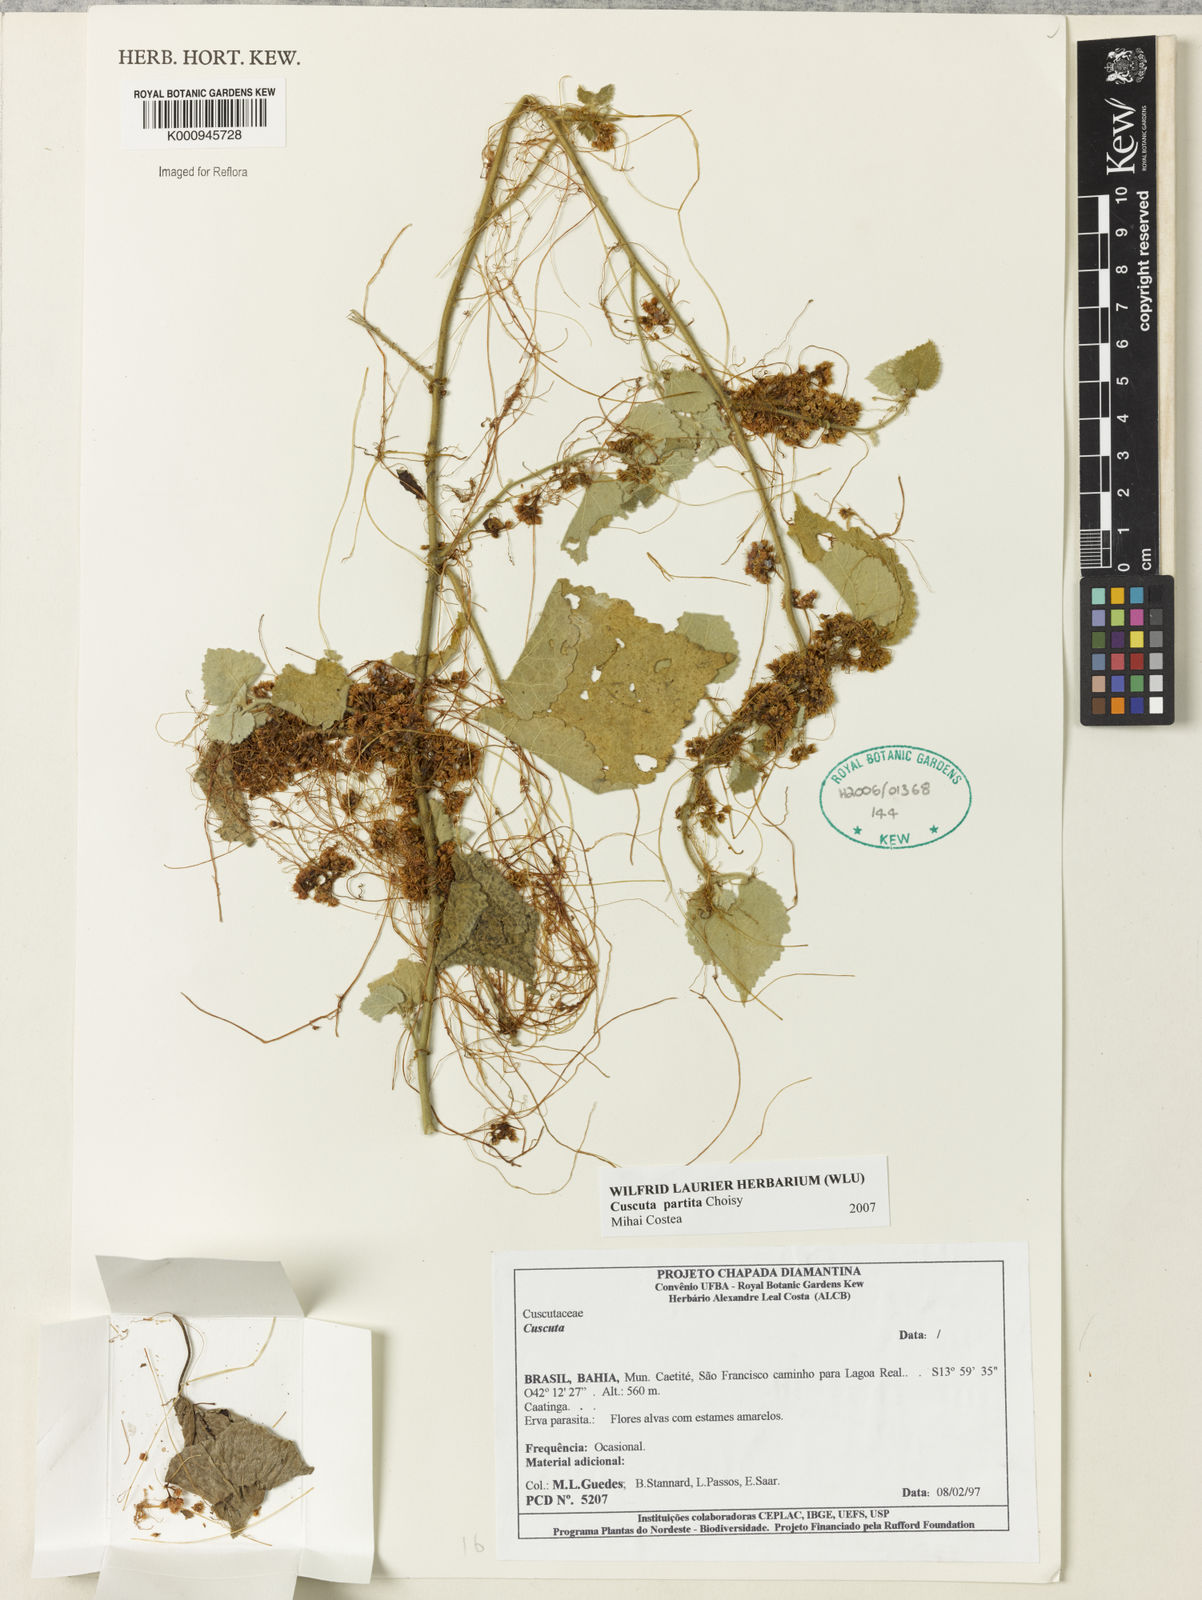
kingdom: Plantae
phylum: Tracheophyta
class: Magnoliopsida
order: Solanales
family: Convolvulaceae
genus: Cuscuta
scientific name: Cuscuta partita
